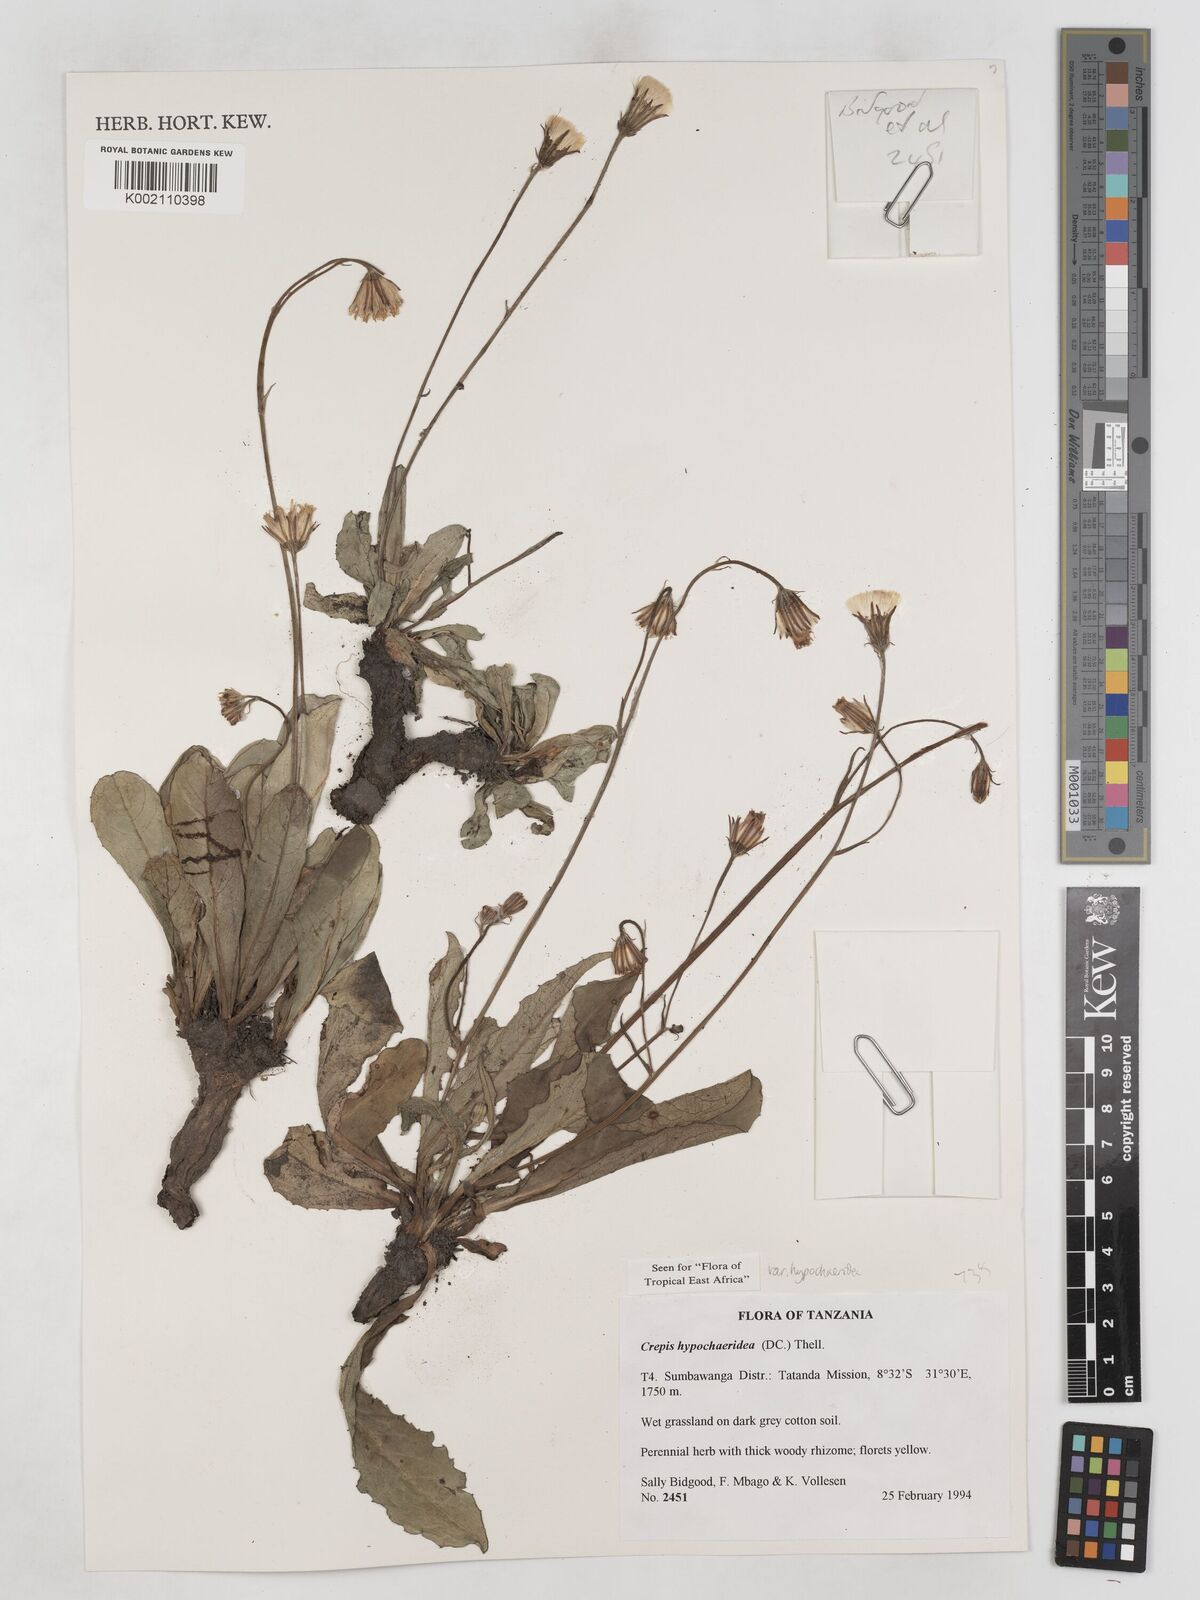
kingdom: Plantae
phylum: Tracheophyta
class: Magnoliopsida
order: Asterales
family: Asteraceae
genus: Crepis
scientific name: Crepis hypochoeridea
